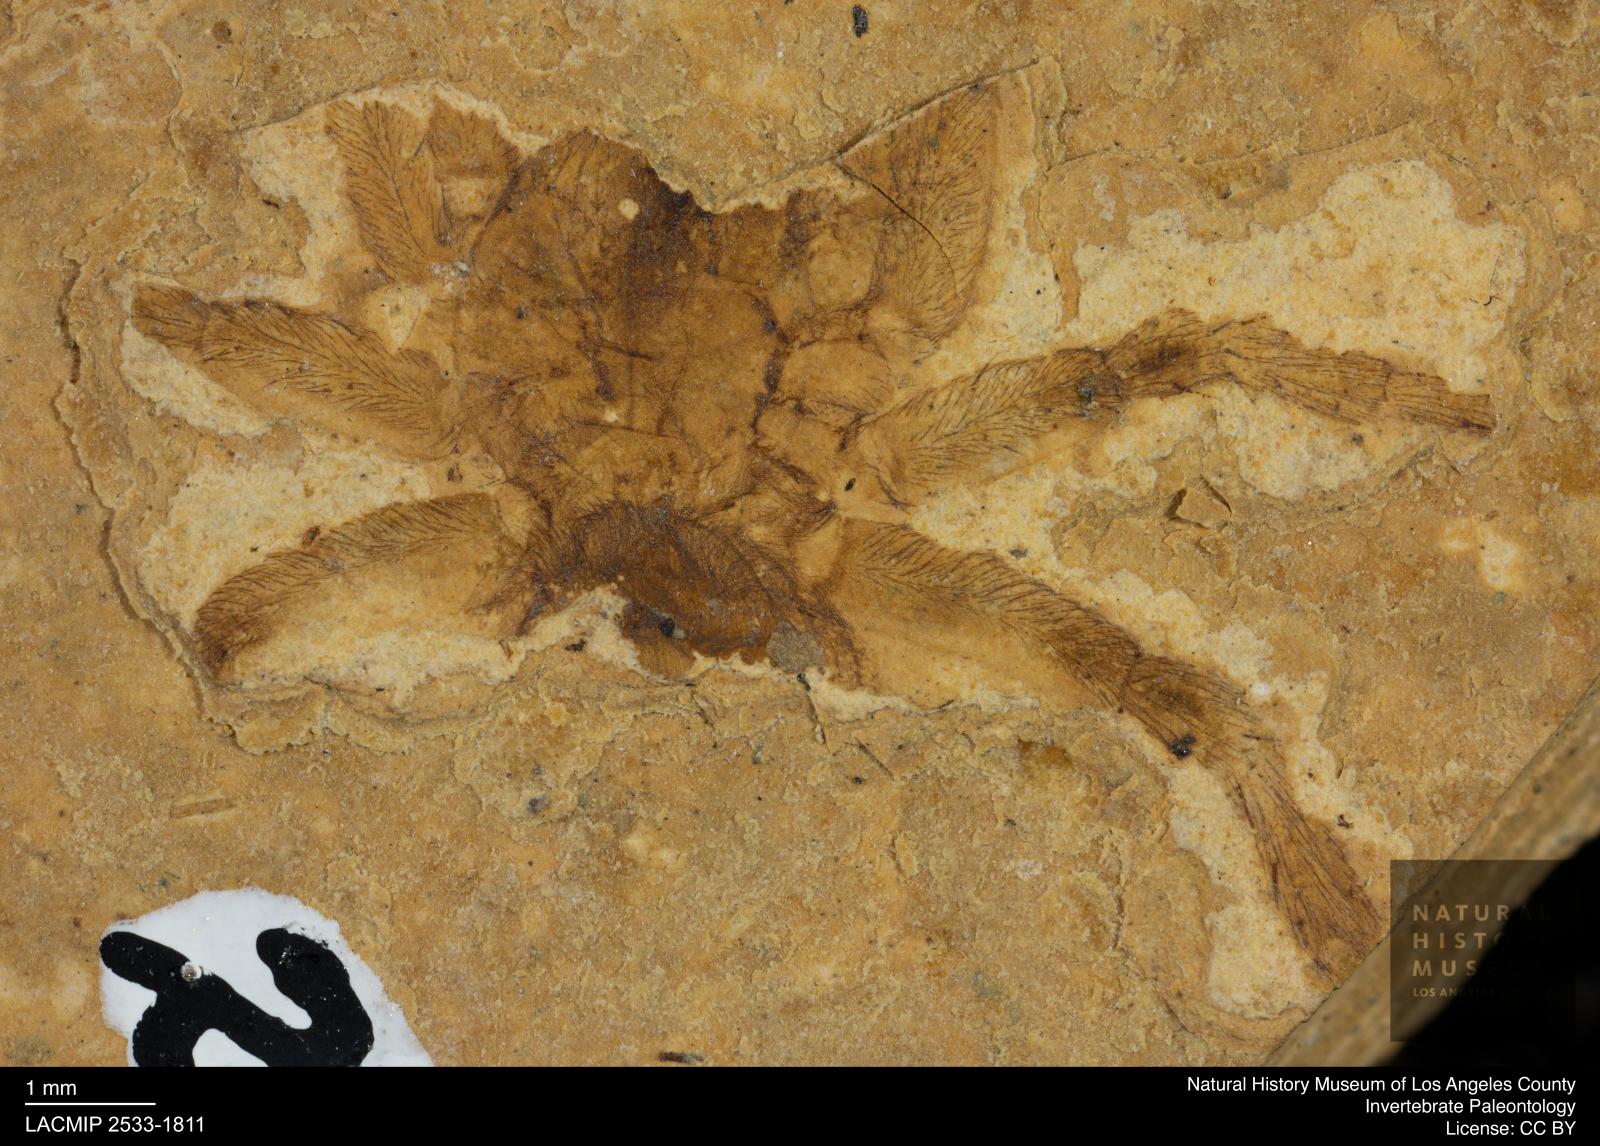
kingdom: Animalia
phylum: Arthropoda
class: Arachnida
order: Araneae
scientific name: Araneae
